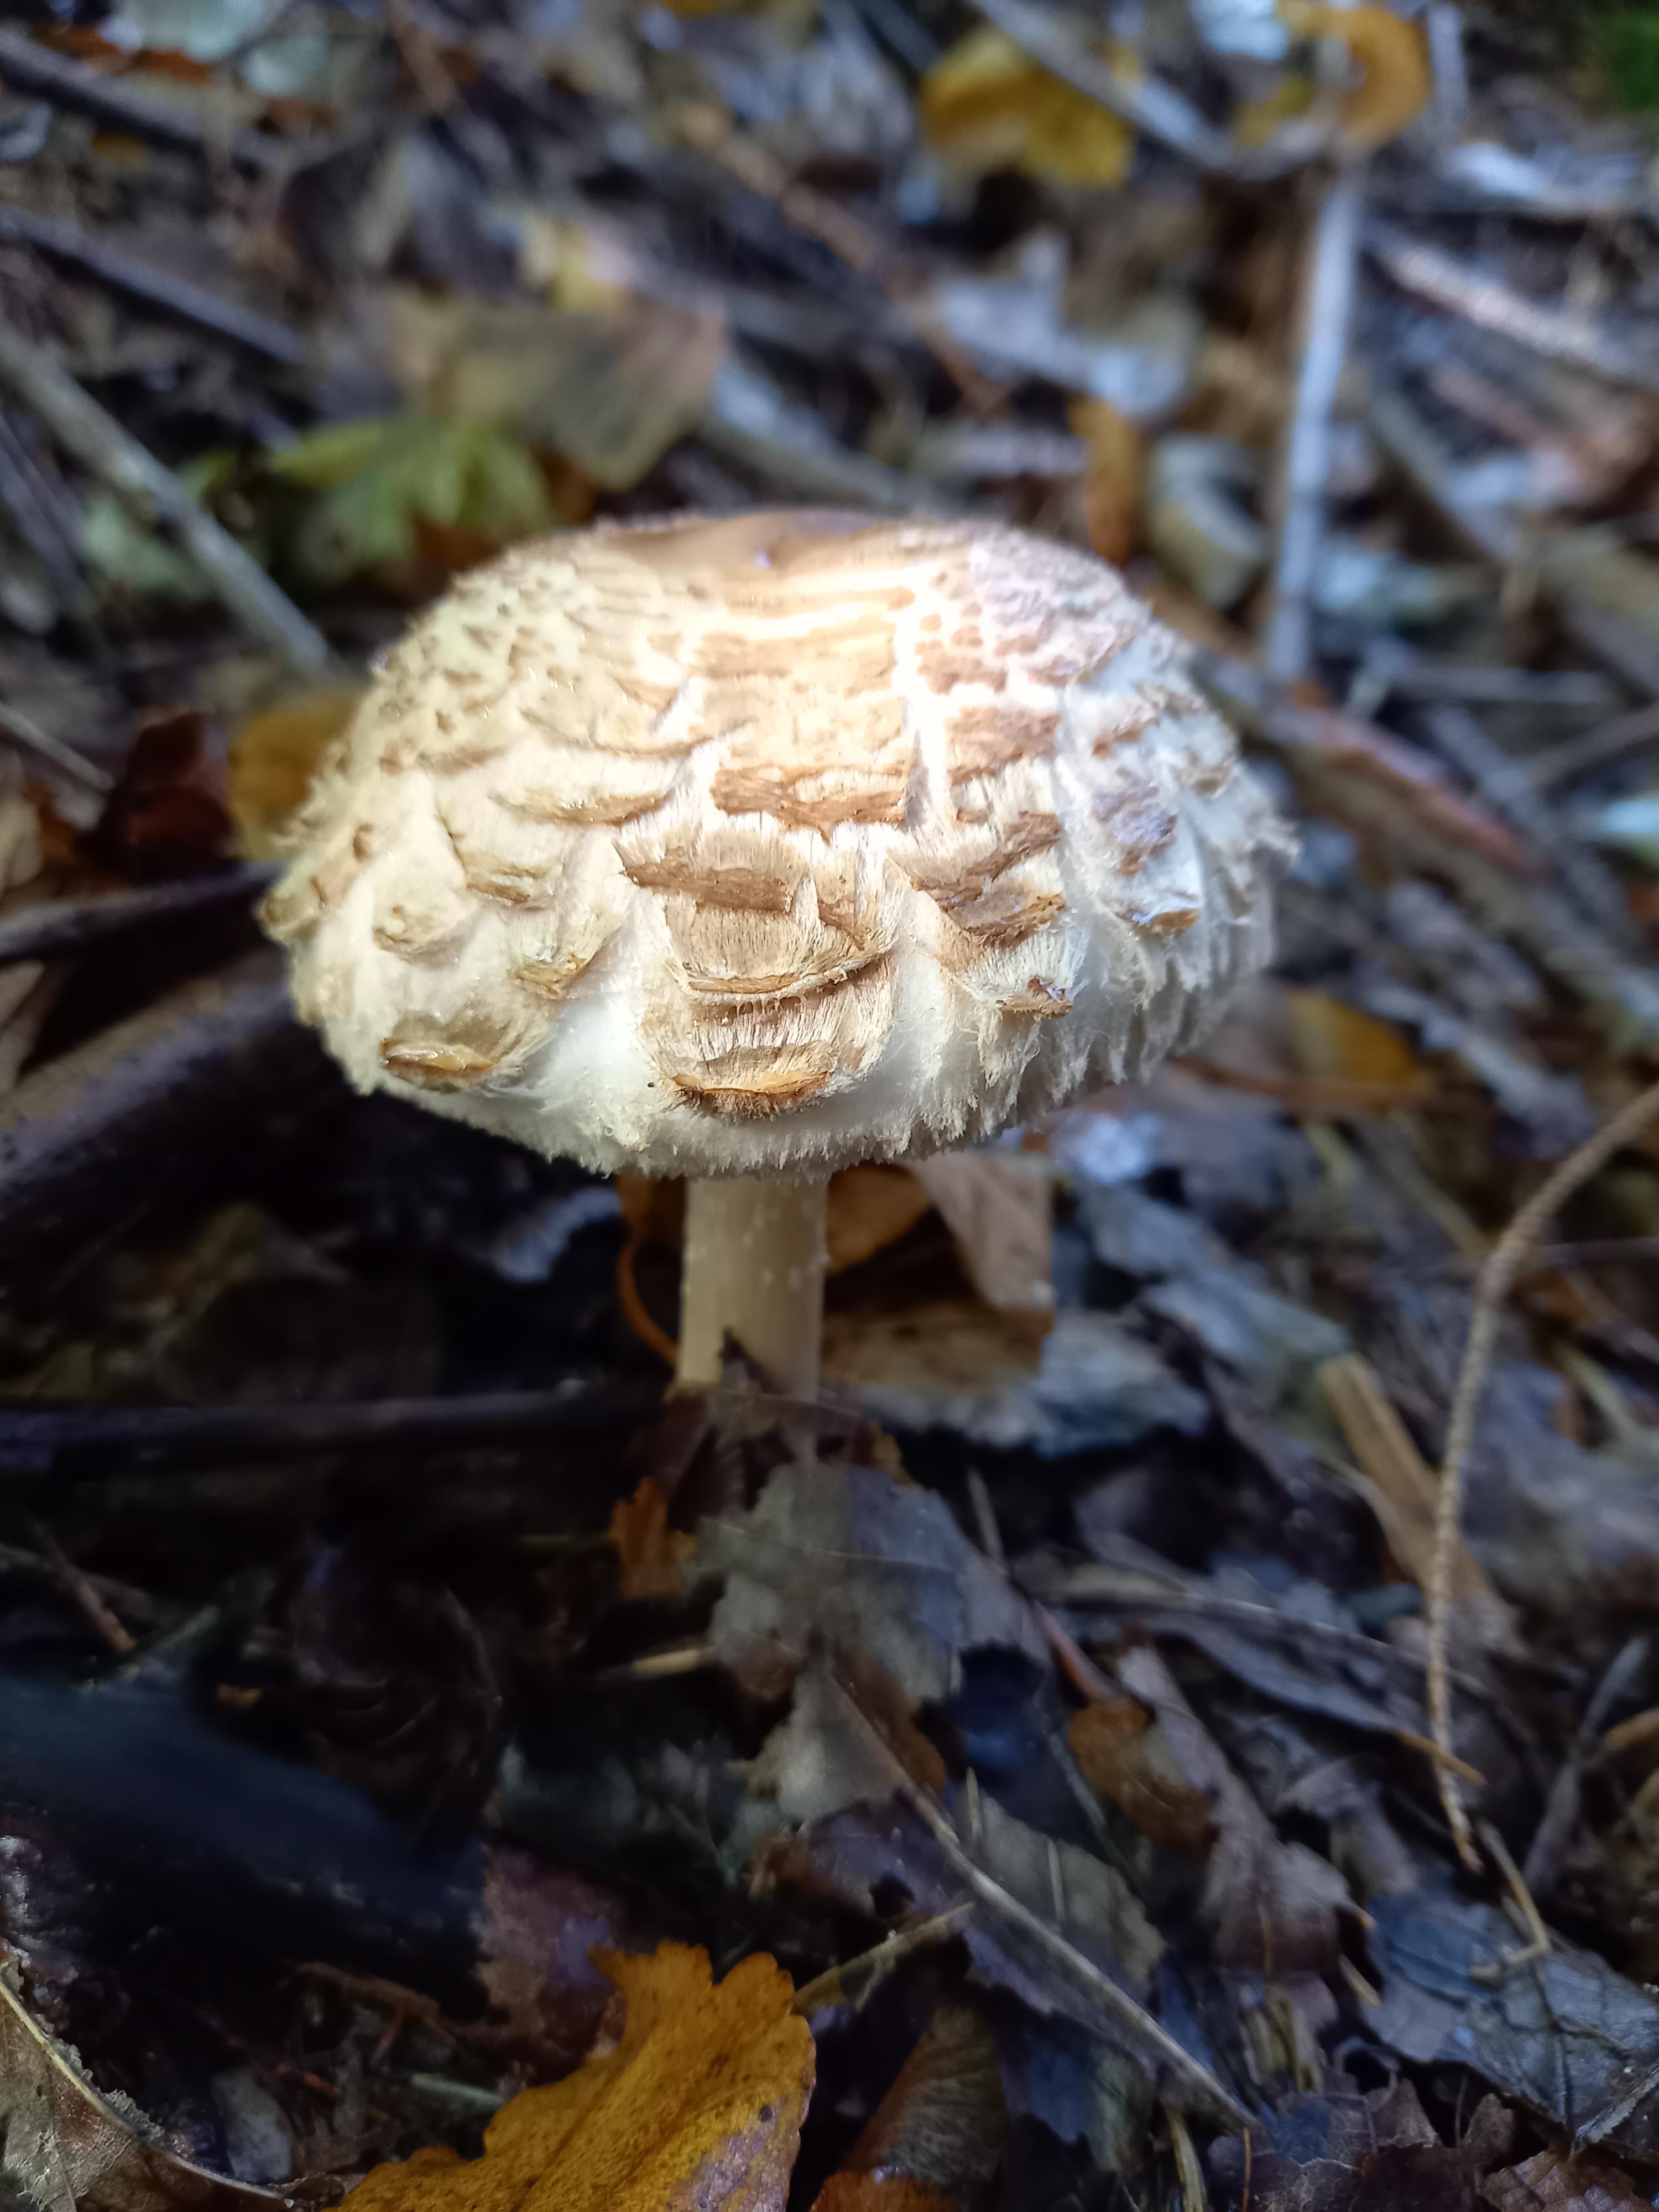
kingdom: Fungi
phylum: Basidiomycota
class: Agaricomycetes
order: Agaricales
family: Agaricaceae
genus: Chlorophyllum
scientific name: Chlorophyllum
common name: rabarberhat
